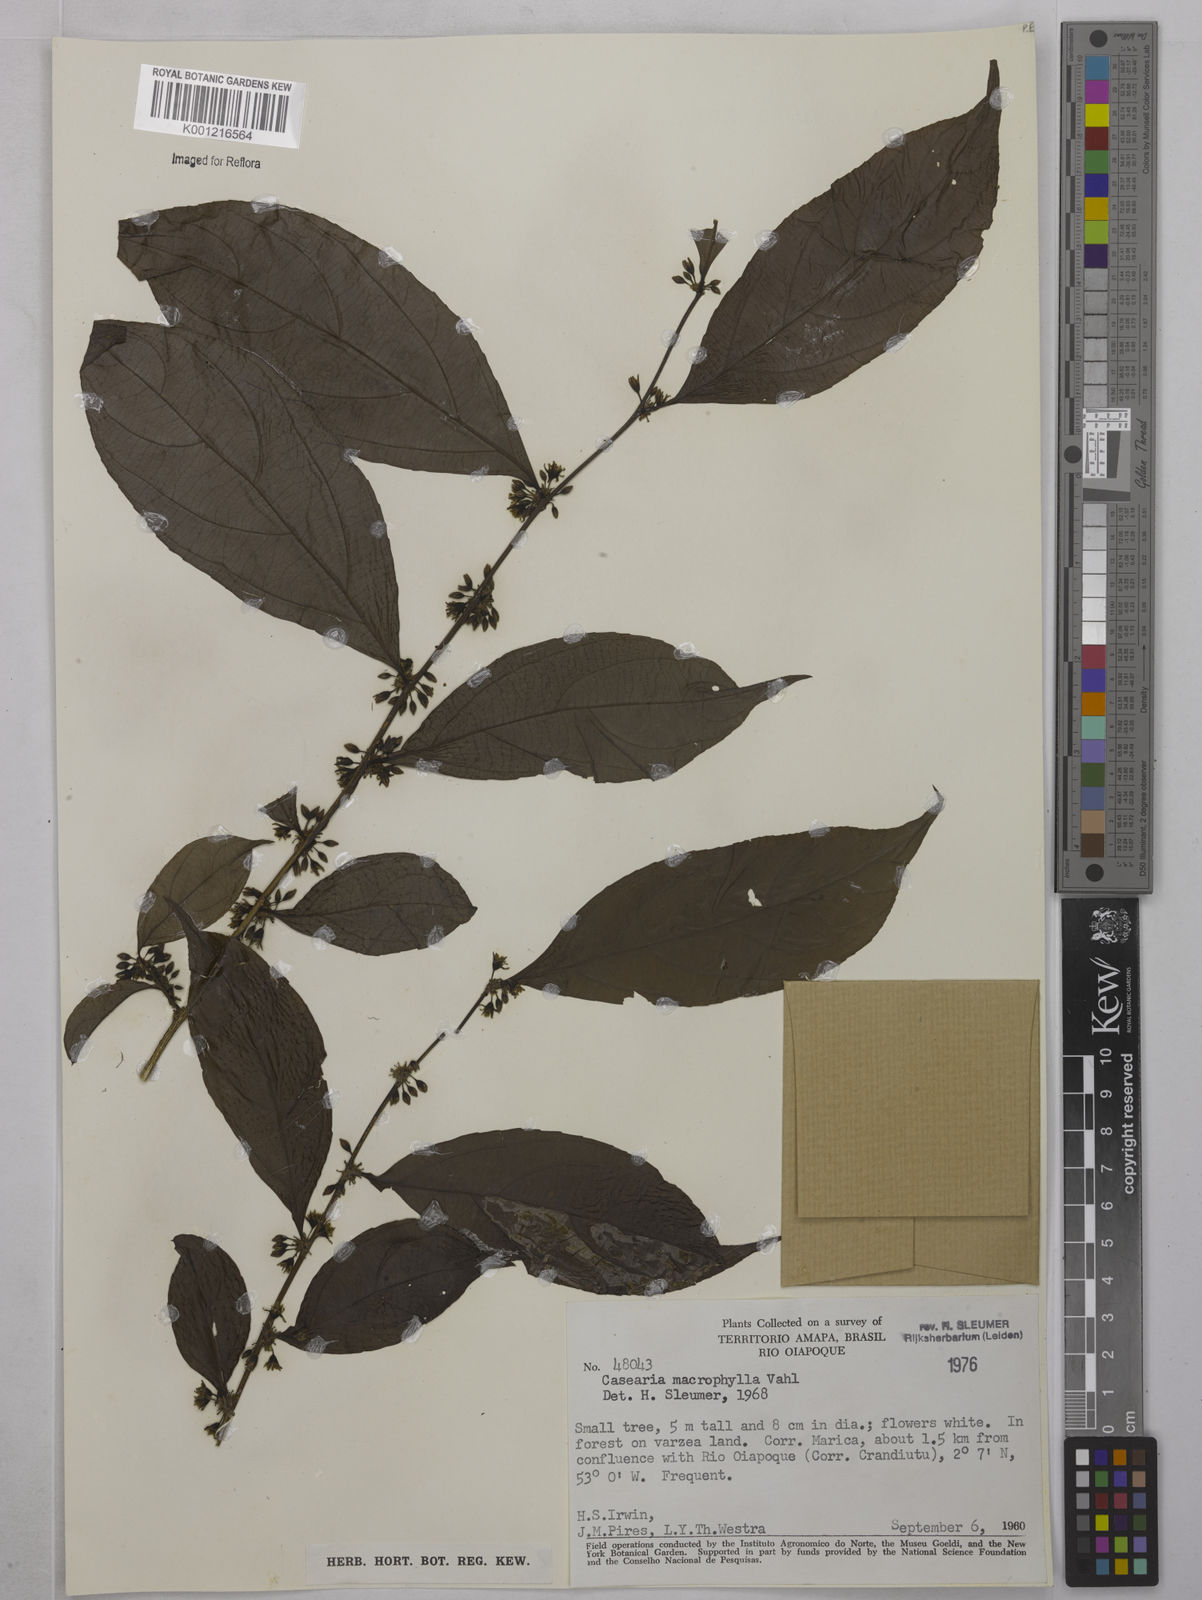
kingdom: Plantae
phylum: Tracheophyta
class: Magnoliopsida
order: Malpighiales
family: Salicaceae
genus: Casearia
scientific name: Casearia pitumba
